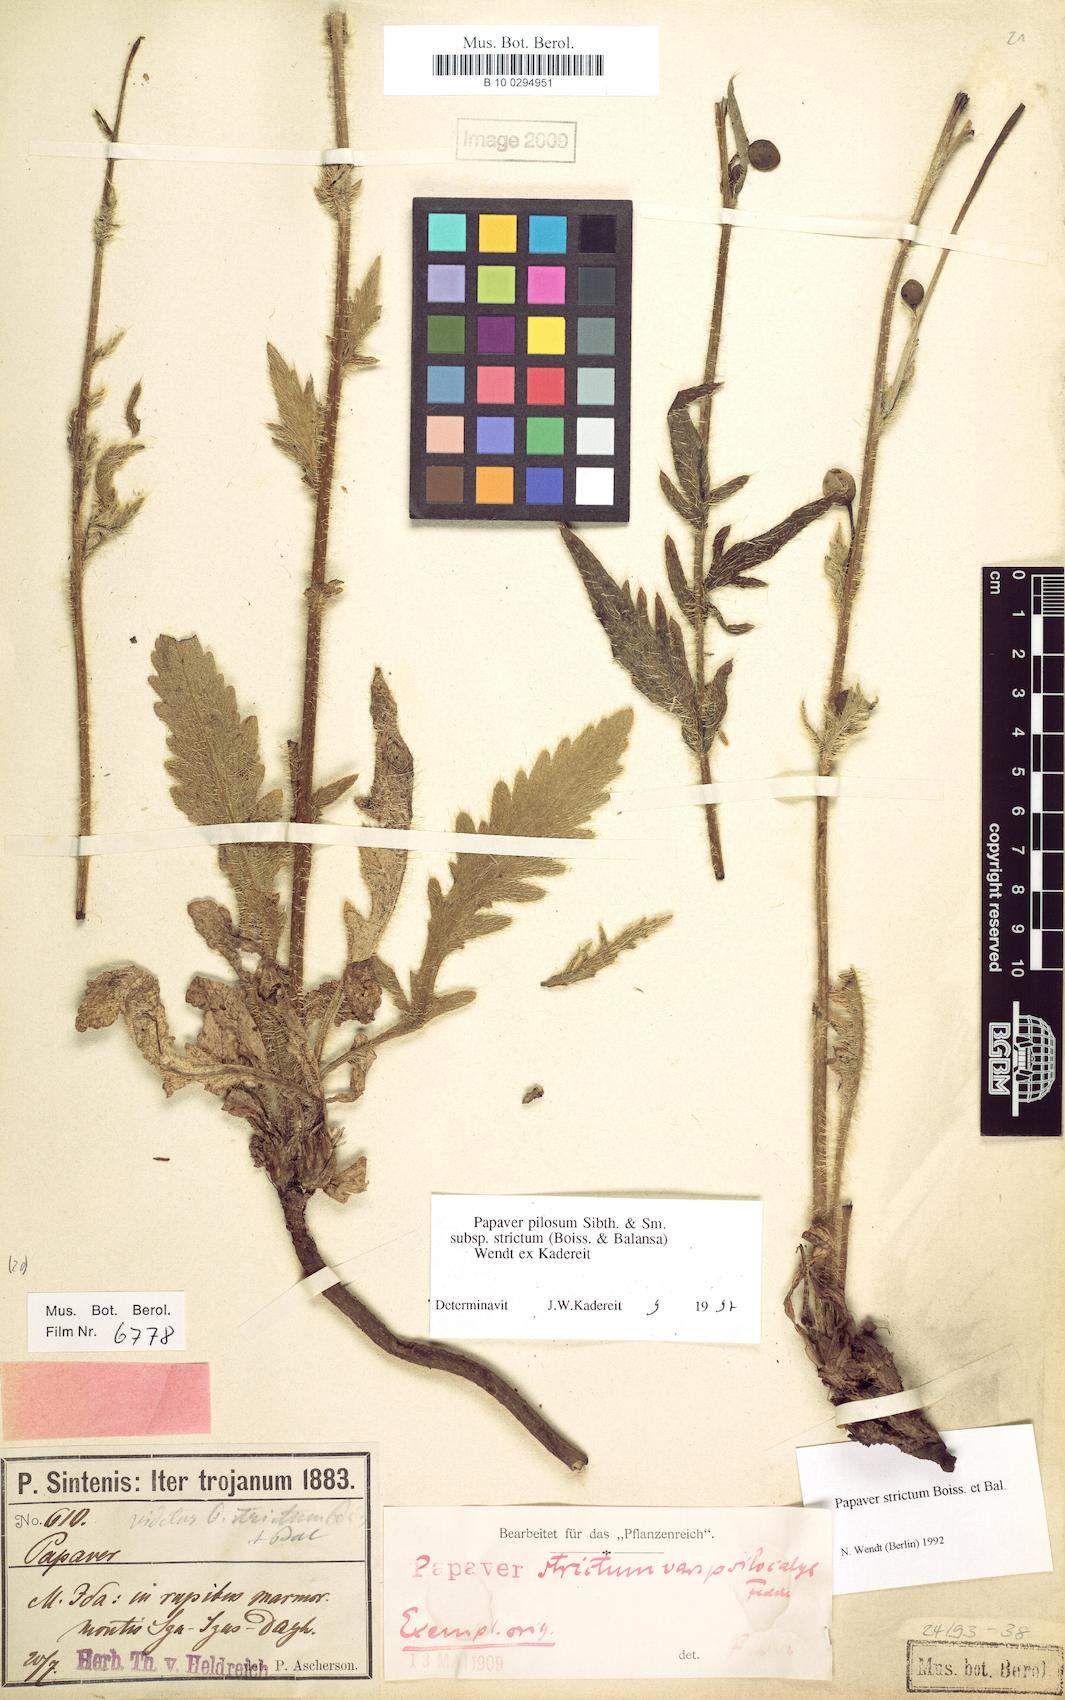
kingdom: Plantae
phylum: Tracheophyta
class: Magnoliopsida
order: Ranunculales
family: Papaveraceae
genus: Papaver
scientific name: Papaver pilosum
